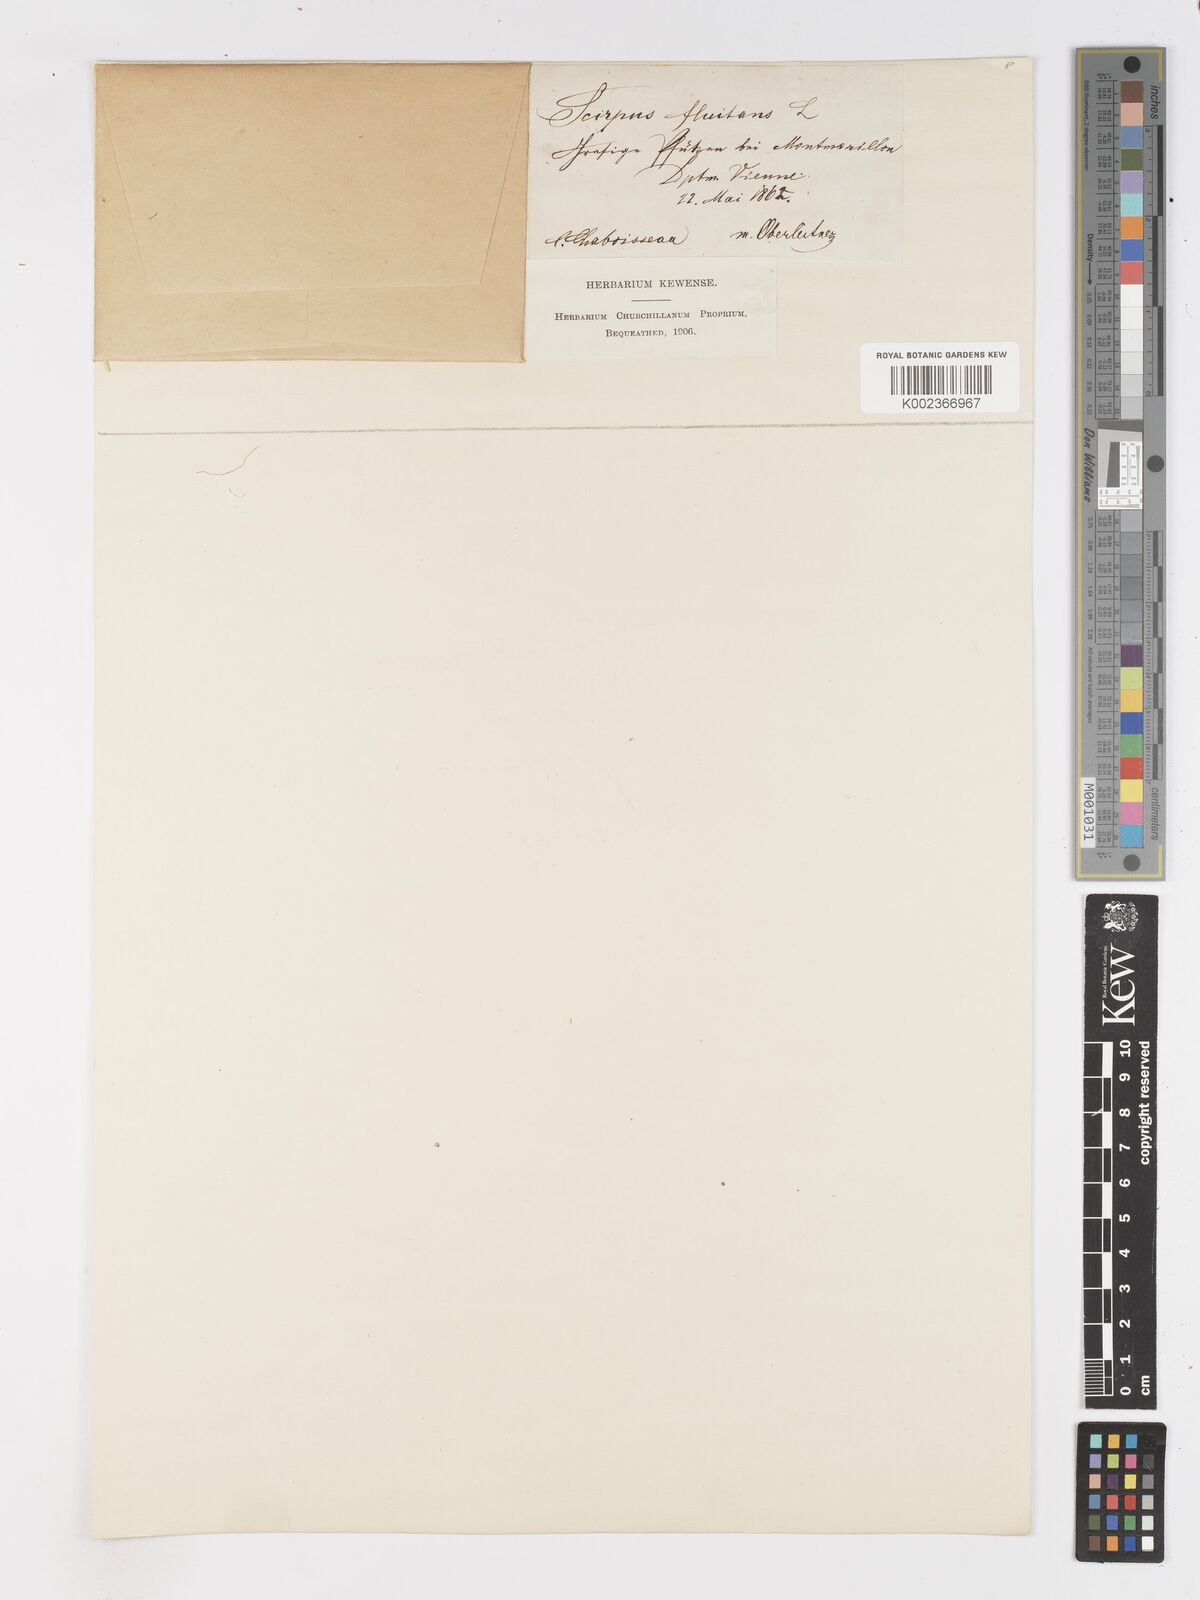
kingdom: Plantae
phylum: Tracheophyta
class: Liliopsida
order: Poales
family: Cyperaceae
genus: Isolepis
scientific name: Isolepis fluitans
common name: Floating club-rush
